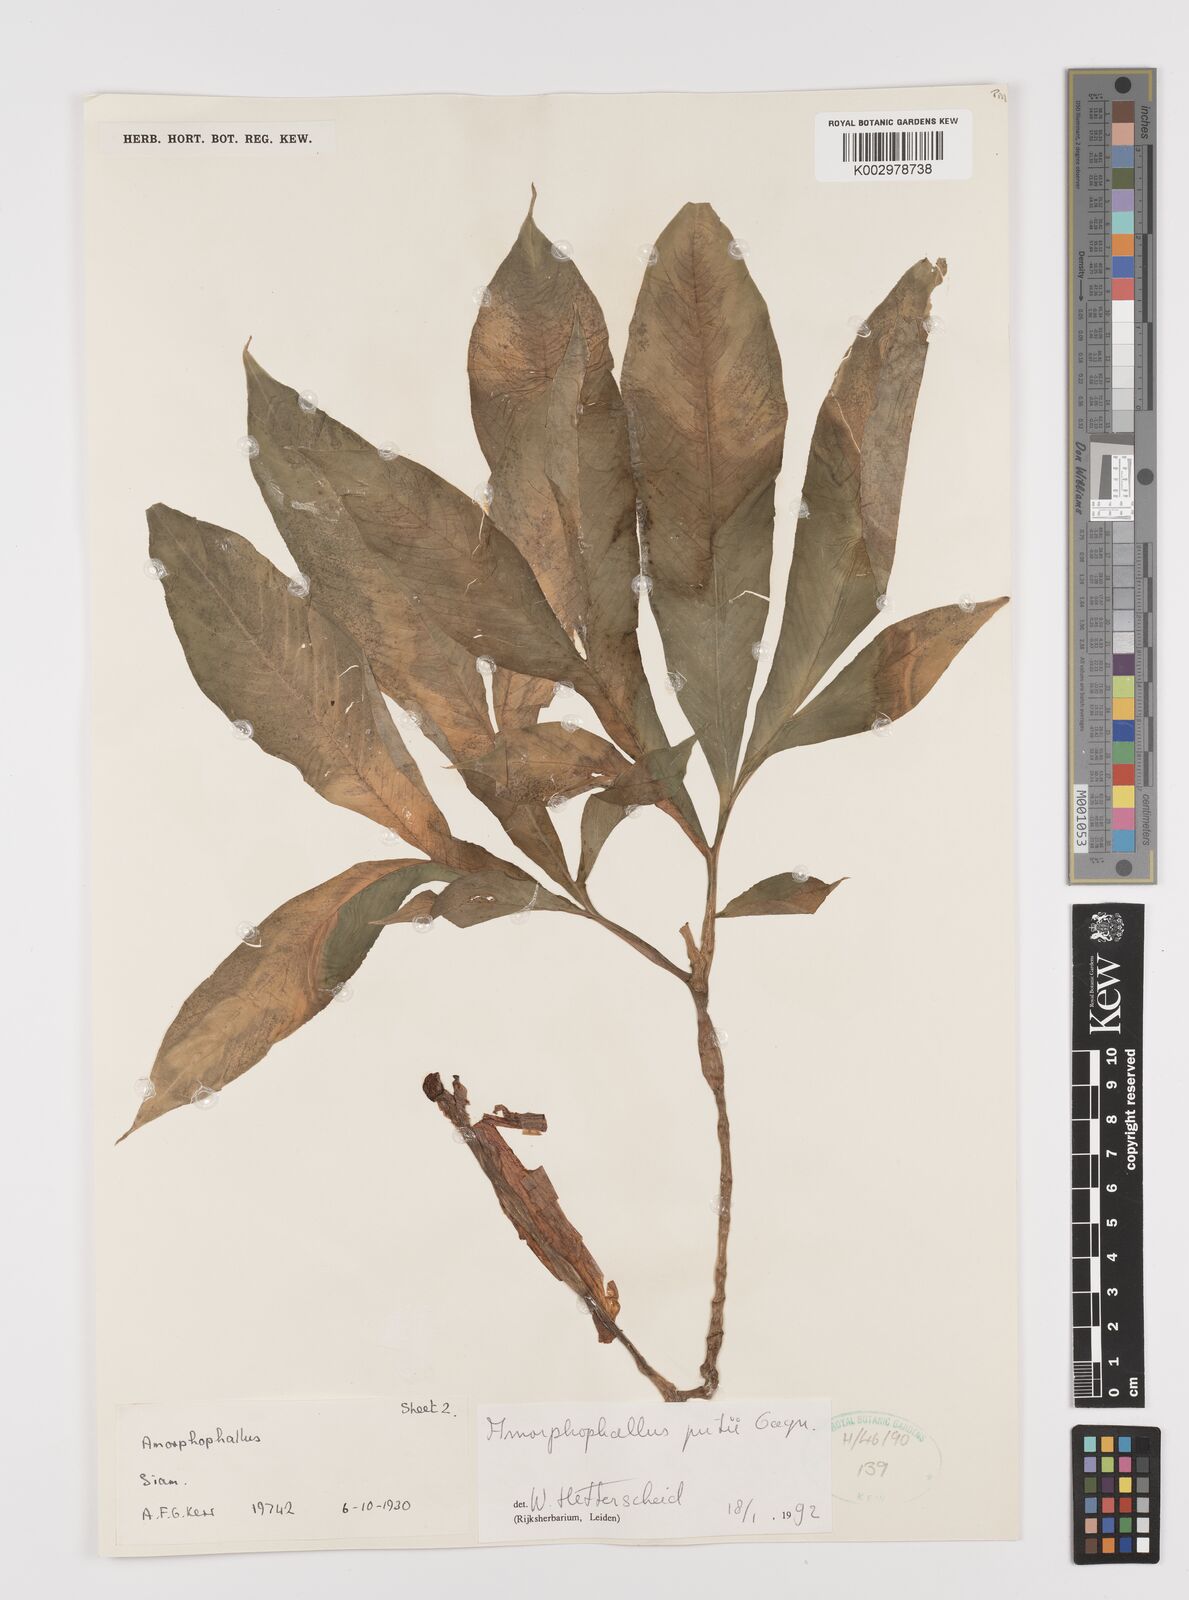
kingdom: Plantae
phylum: Tracheophyta
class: Liliopsida
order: Alismatales
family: Araceae
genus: Amorphophallus
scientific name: Amorphophallus putii
